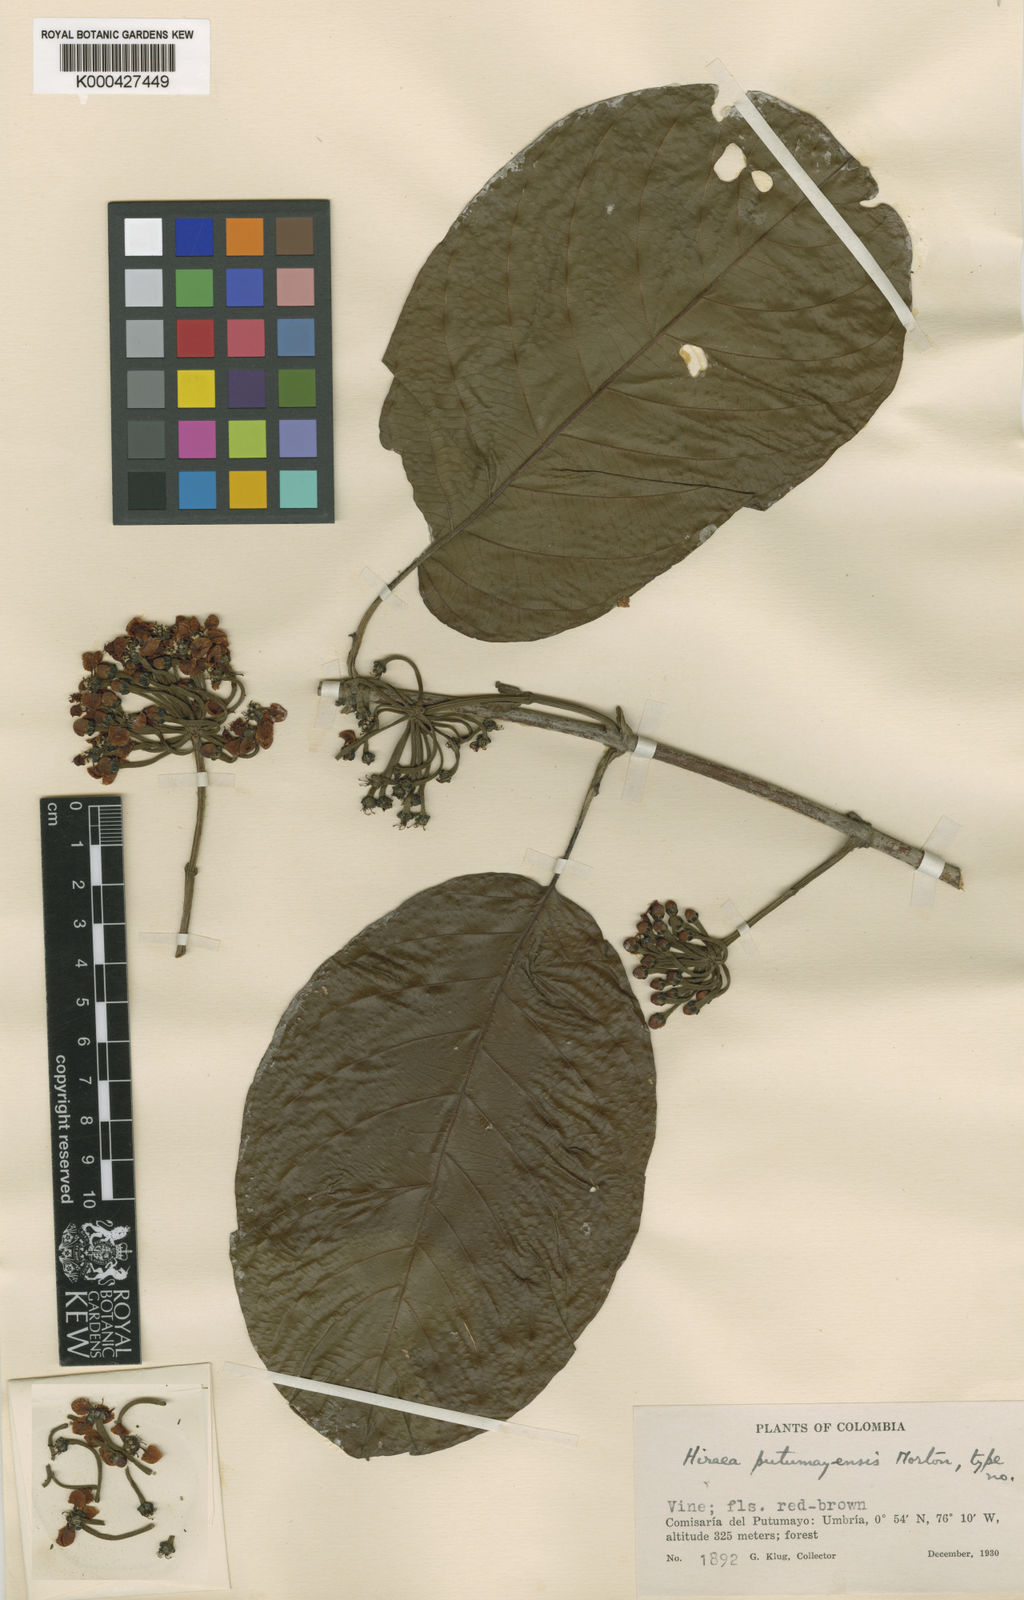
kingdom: Plantae
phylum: Tracheophyta
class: Magnoliopsida
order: Malpighiales
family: Malpighiaceae
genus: Hiraea
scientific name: Hiraea putumayensis
